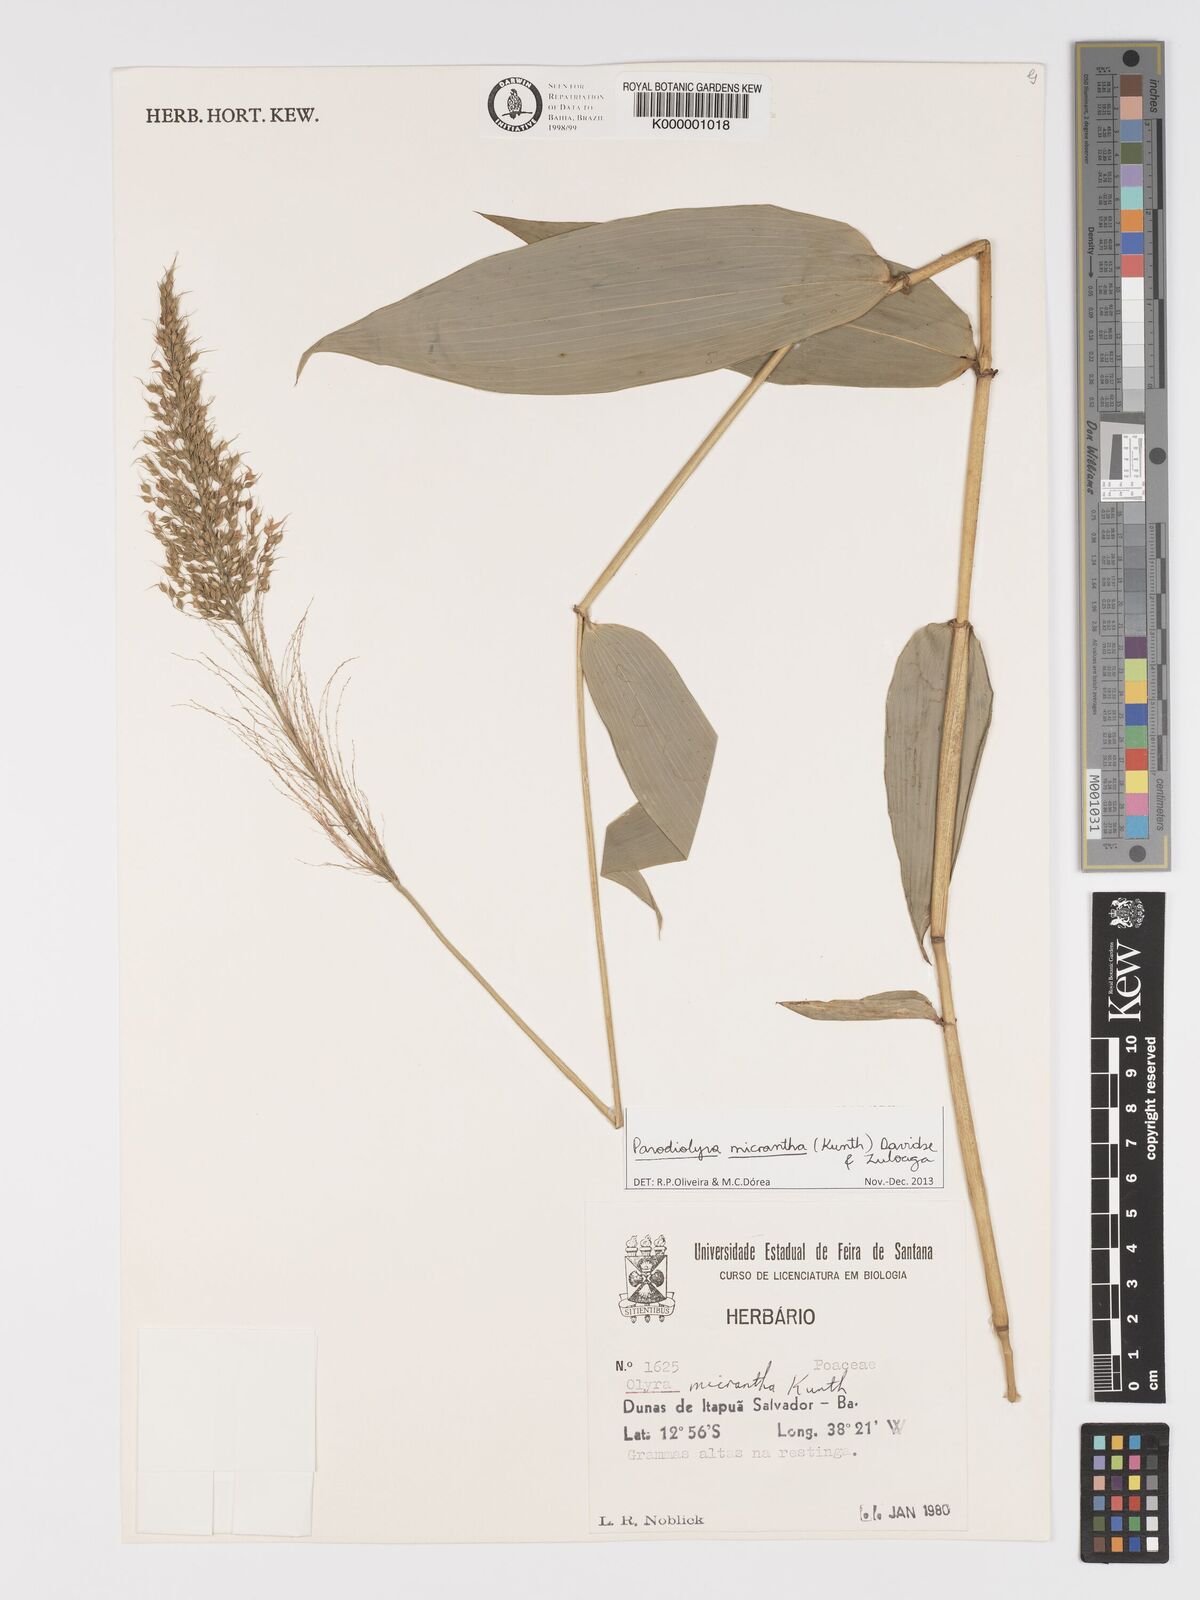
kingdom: Plantae
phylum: Tracheophyta
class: Liliopsida
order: Poales
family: Poaceae
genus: Taquara
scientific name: Taquara micrantha
